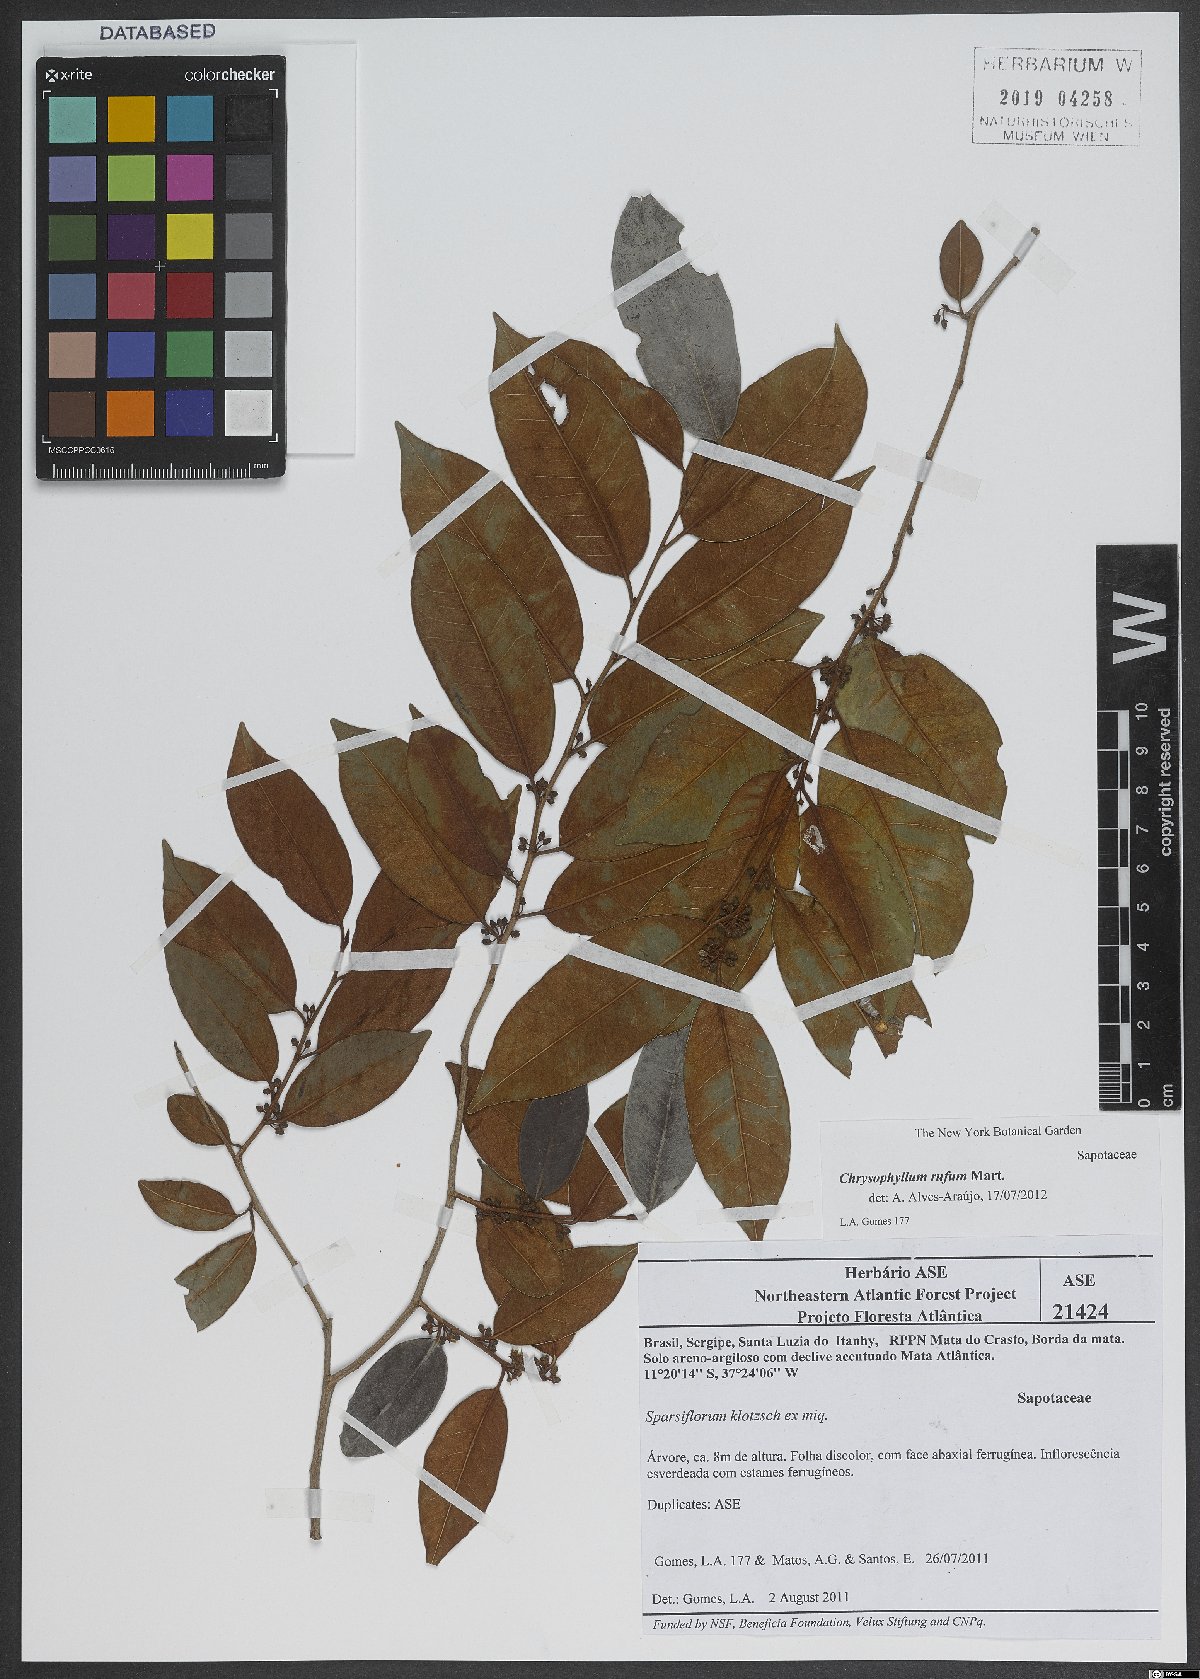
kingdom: Plantae
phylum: Tracheophyta
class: Magnoliopsida
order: Ericales
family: Sapotaceae
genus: Chrysophyllum
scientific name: Chrysophyllum rufum
